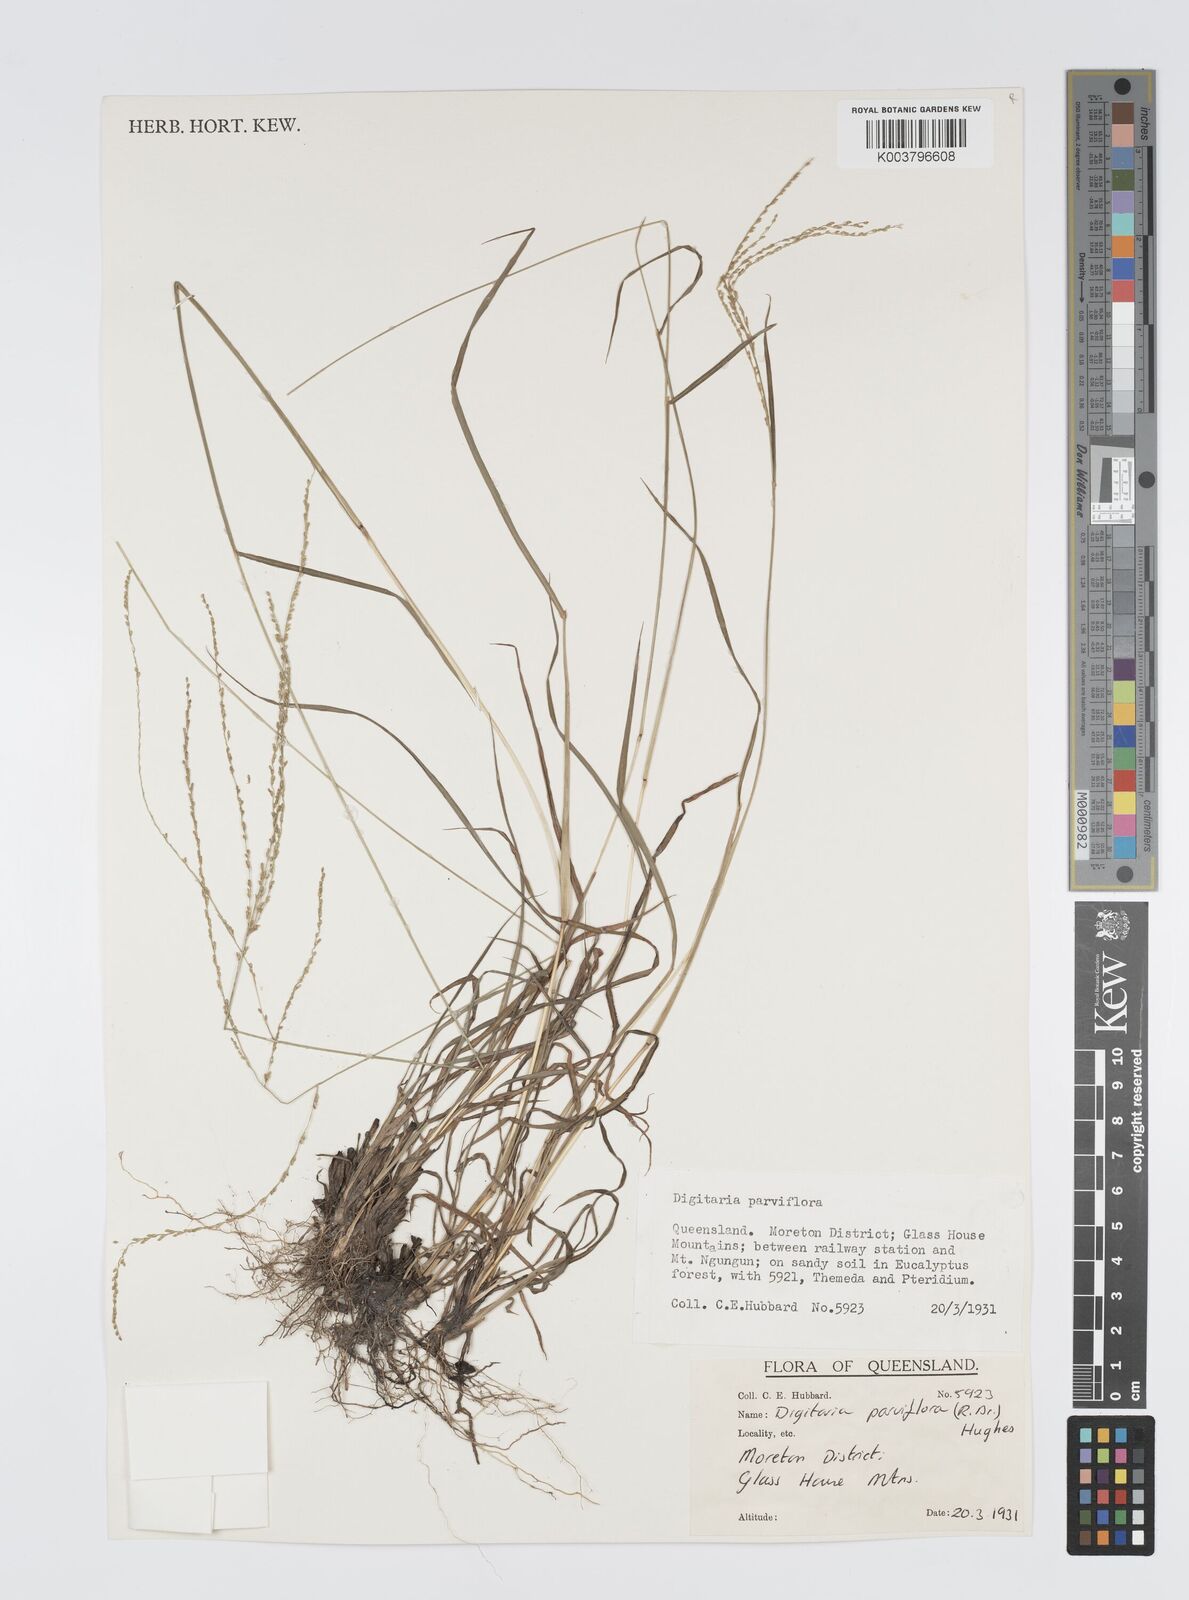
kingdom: Plantae
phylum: Tracheophyta
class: Liliopsida
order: Poales
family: Poaceae
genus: Digitaria
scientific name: Digitaria parviflora
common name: Small-flower finger grass
